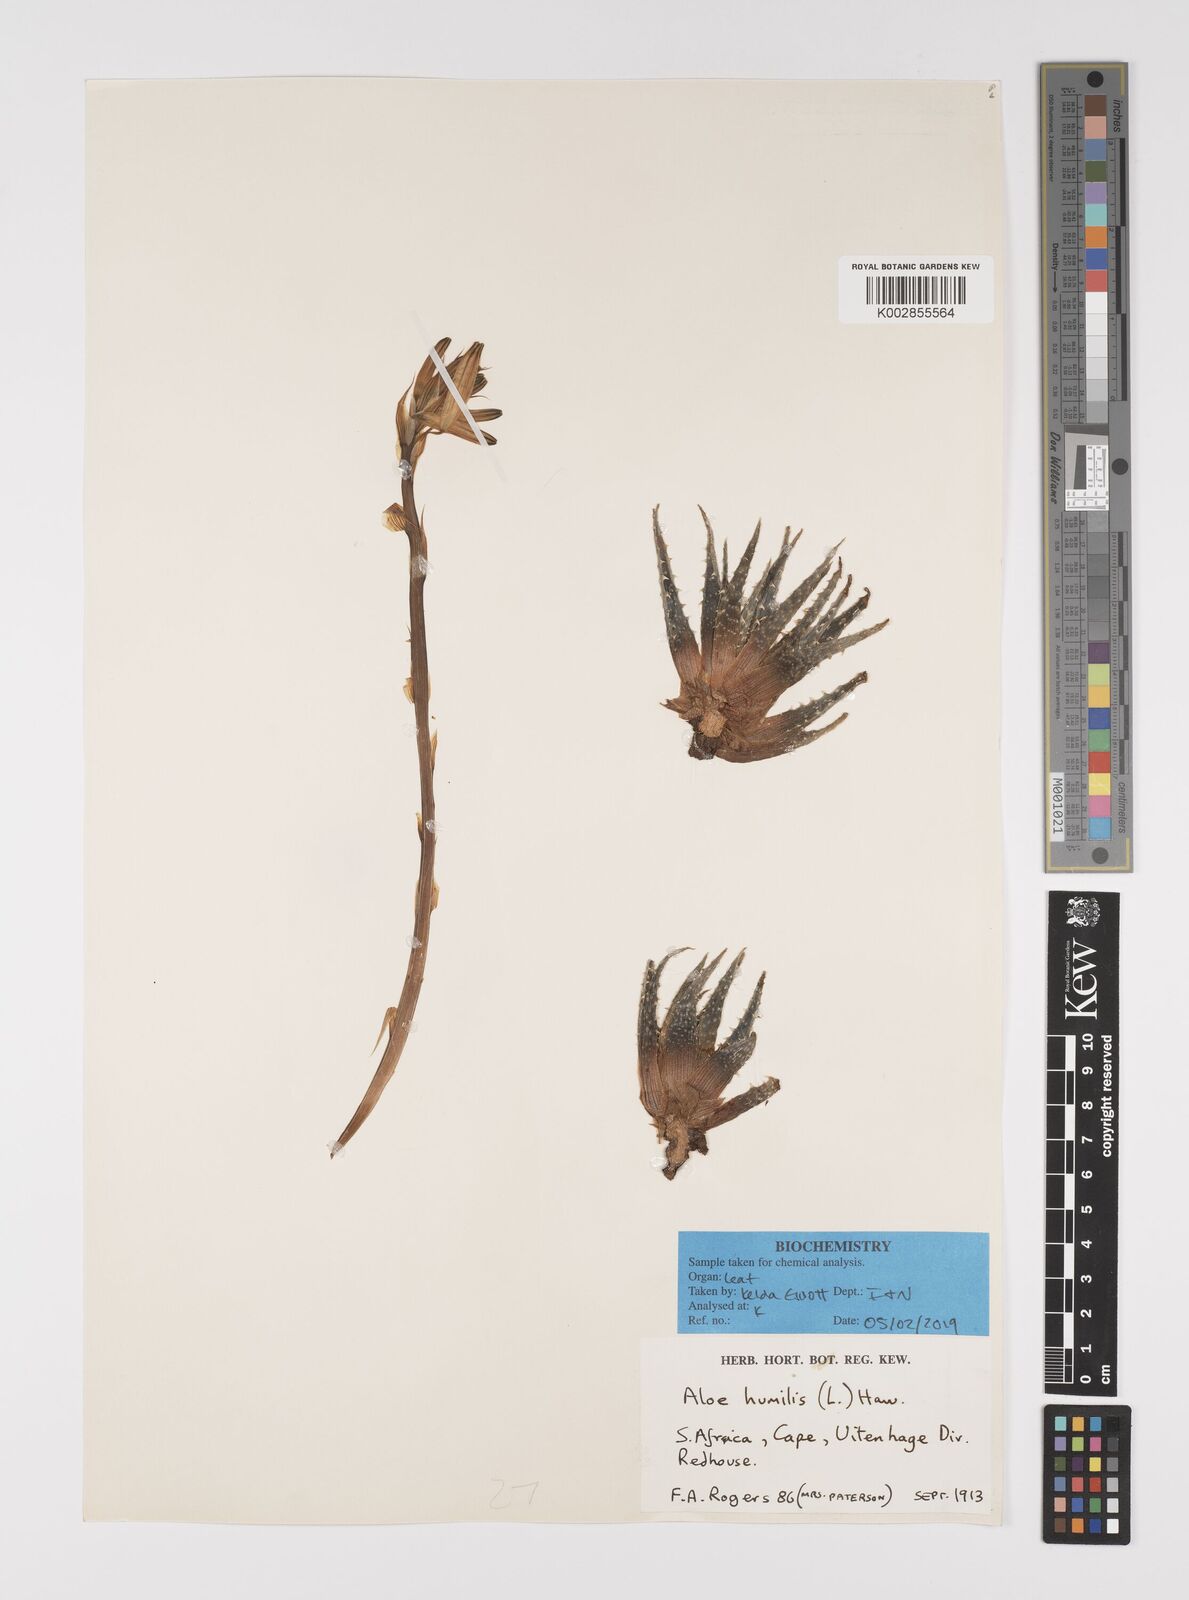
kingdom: Plantae
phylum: Tracheophyta
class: Liliopsida
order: Asparagales
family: Asphodelaceae
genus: Aloe
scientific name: Aloe humilis
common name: Dwarf hedgehog aloe
